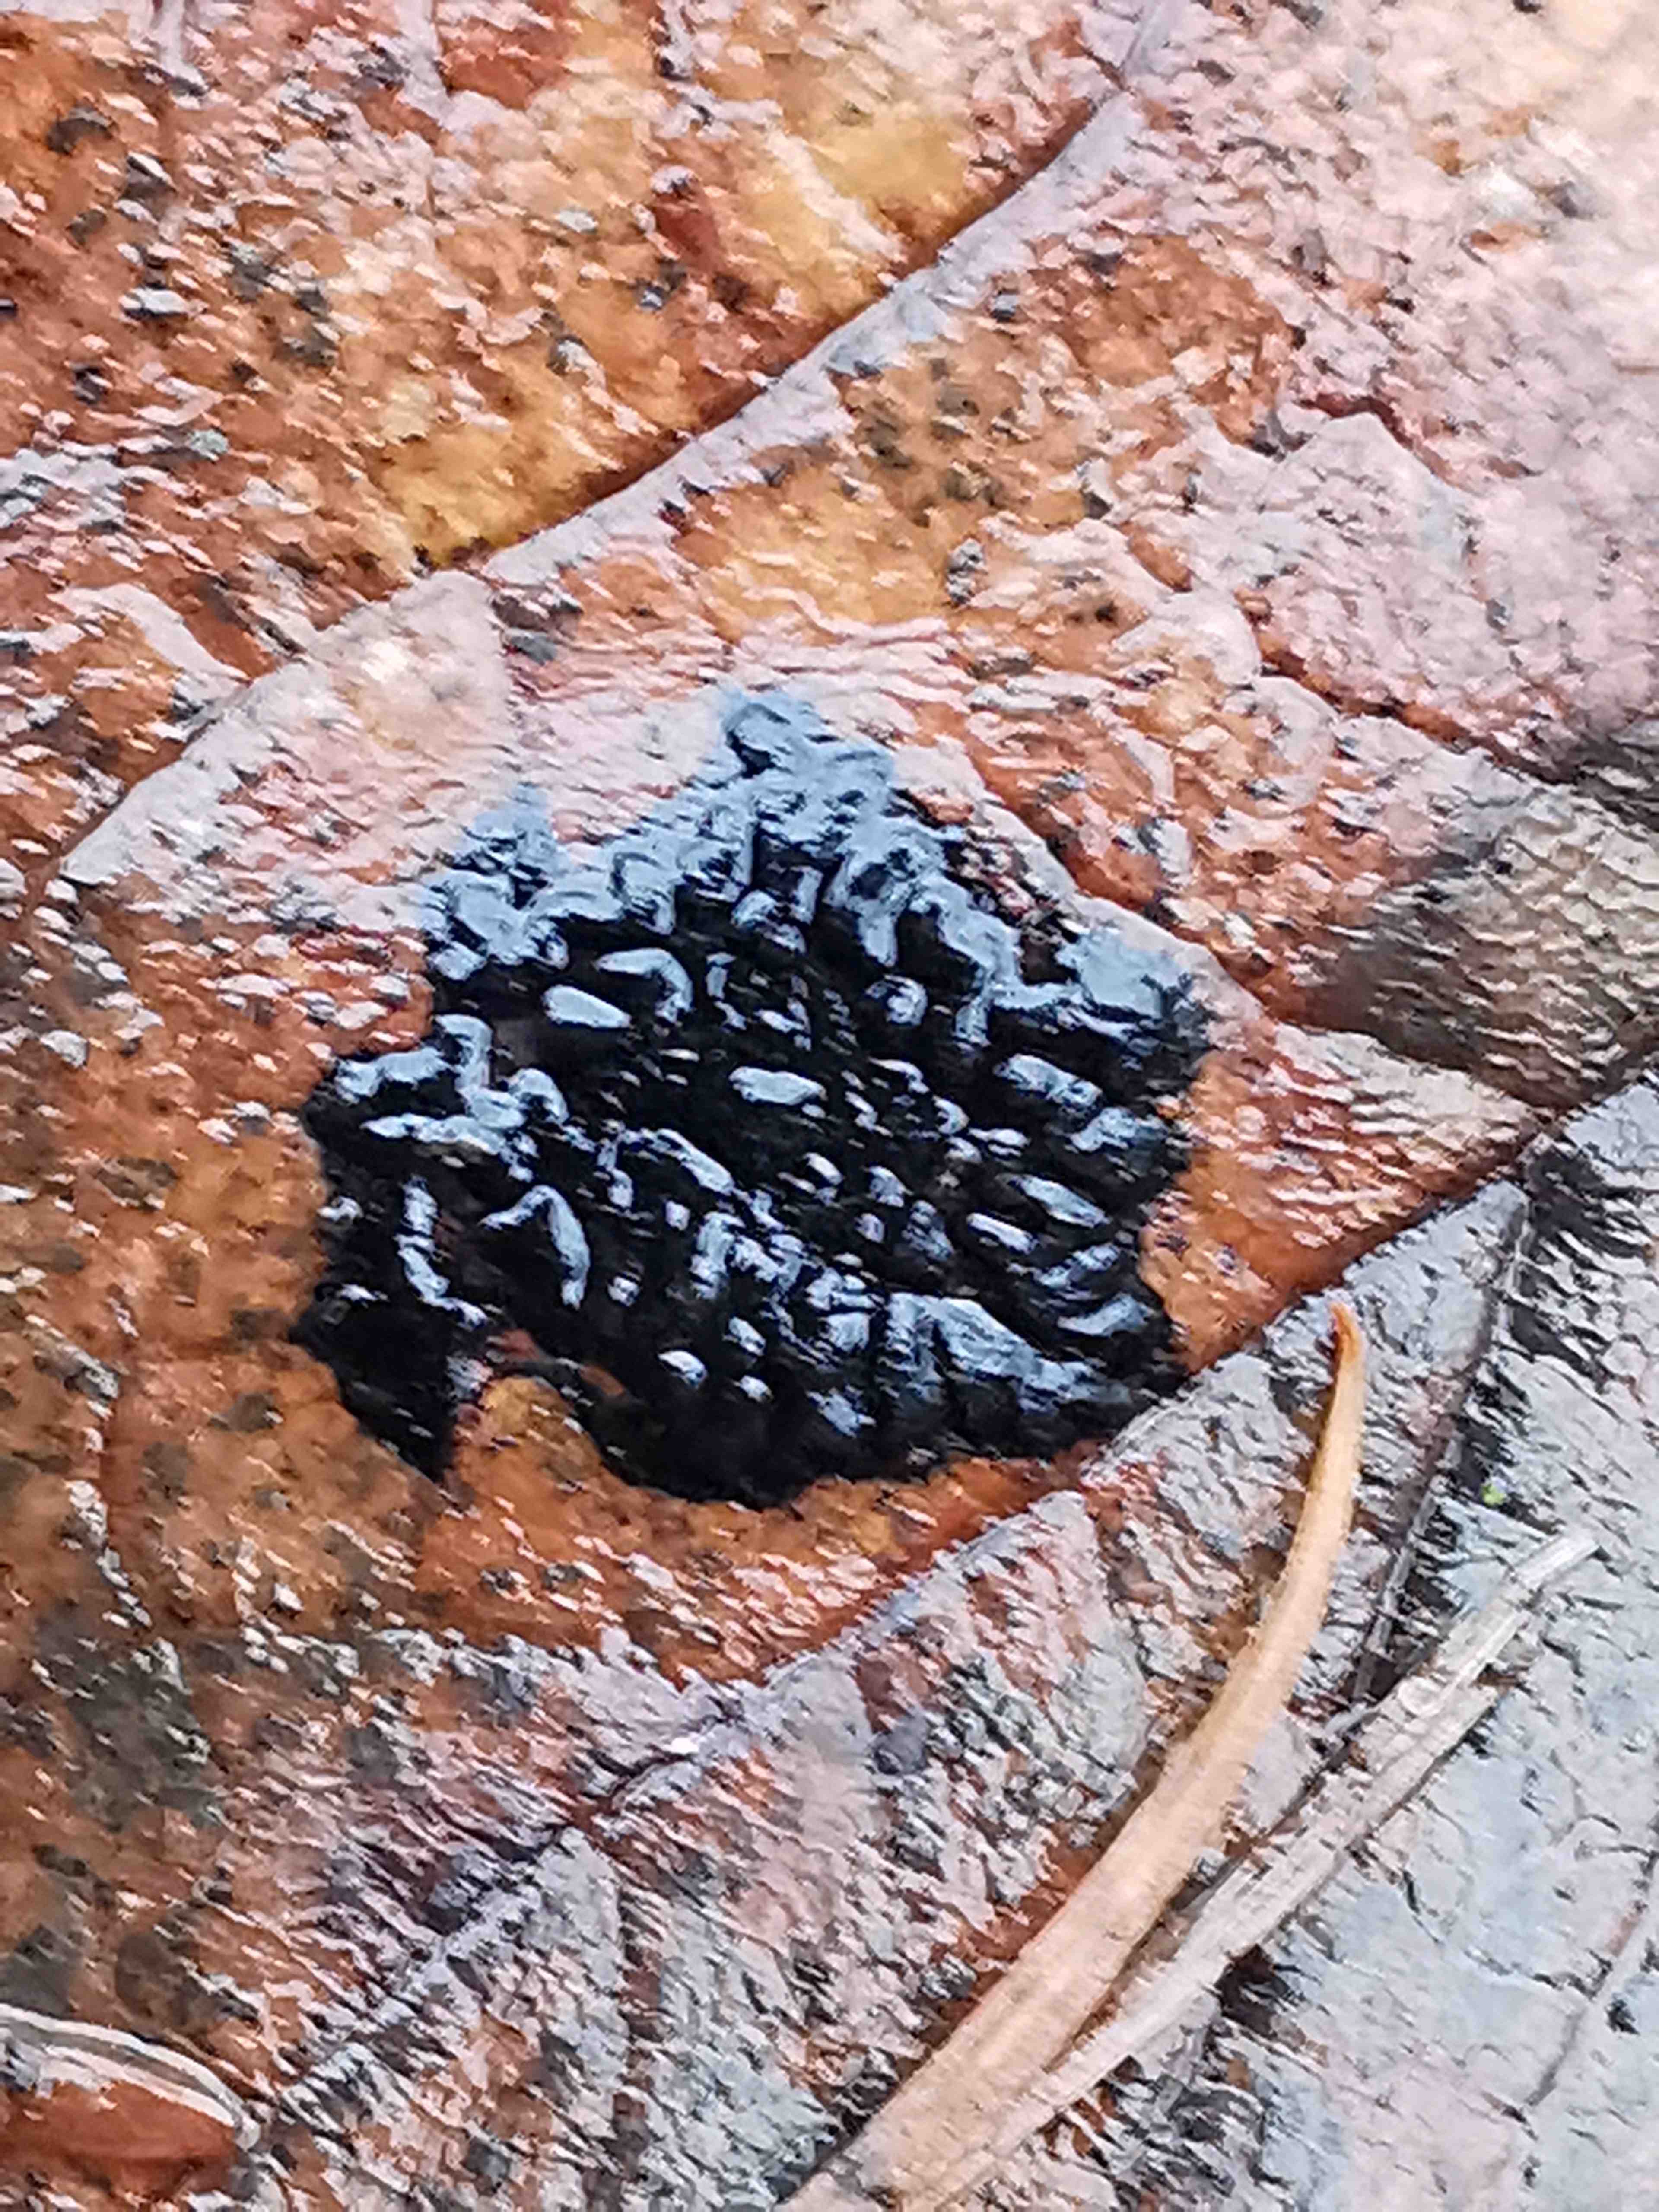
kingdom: Fungi
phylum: Ascomycota
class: Leotiomycetes
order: Rhytismatales
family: Rhytismataceae
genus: Rhytisma
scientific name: Rhytisma acerinum
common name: ahorn-rynkeplet
